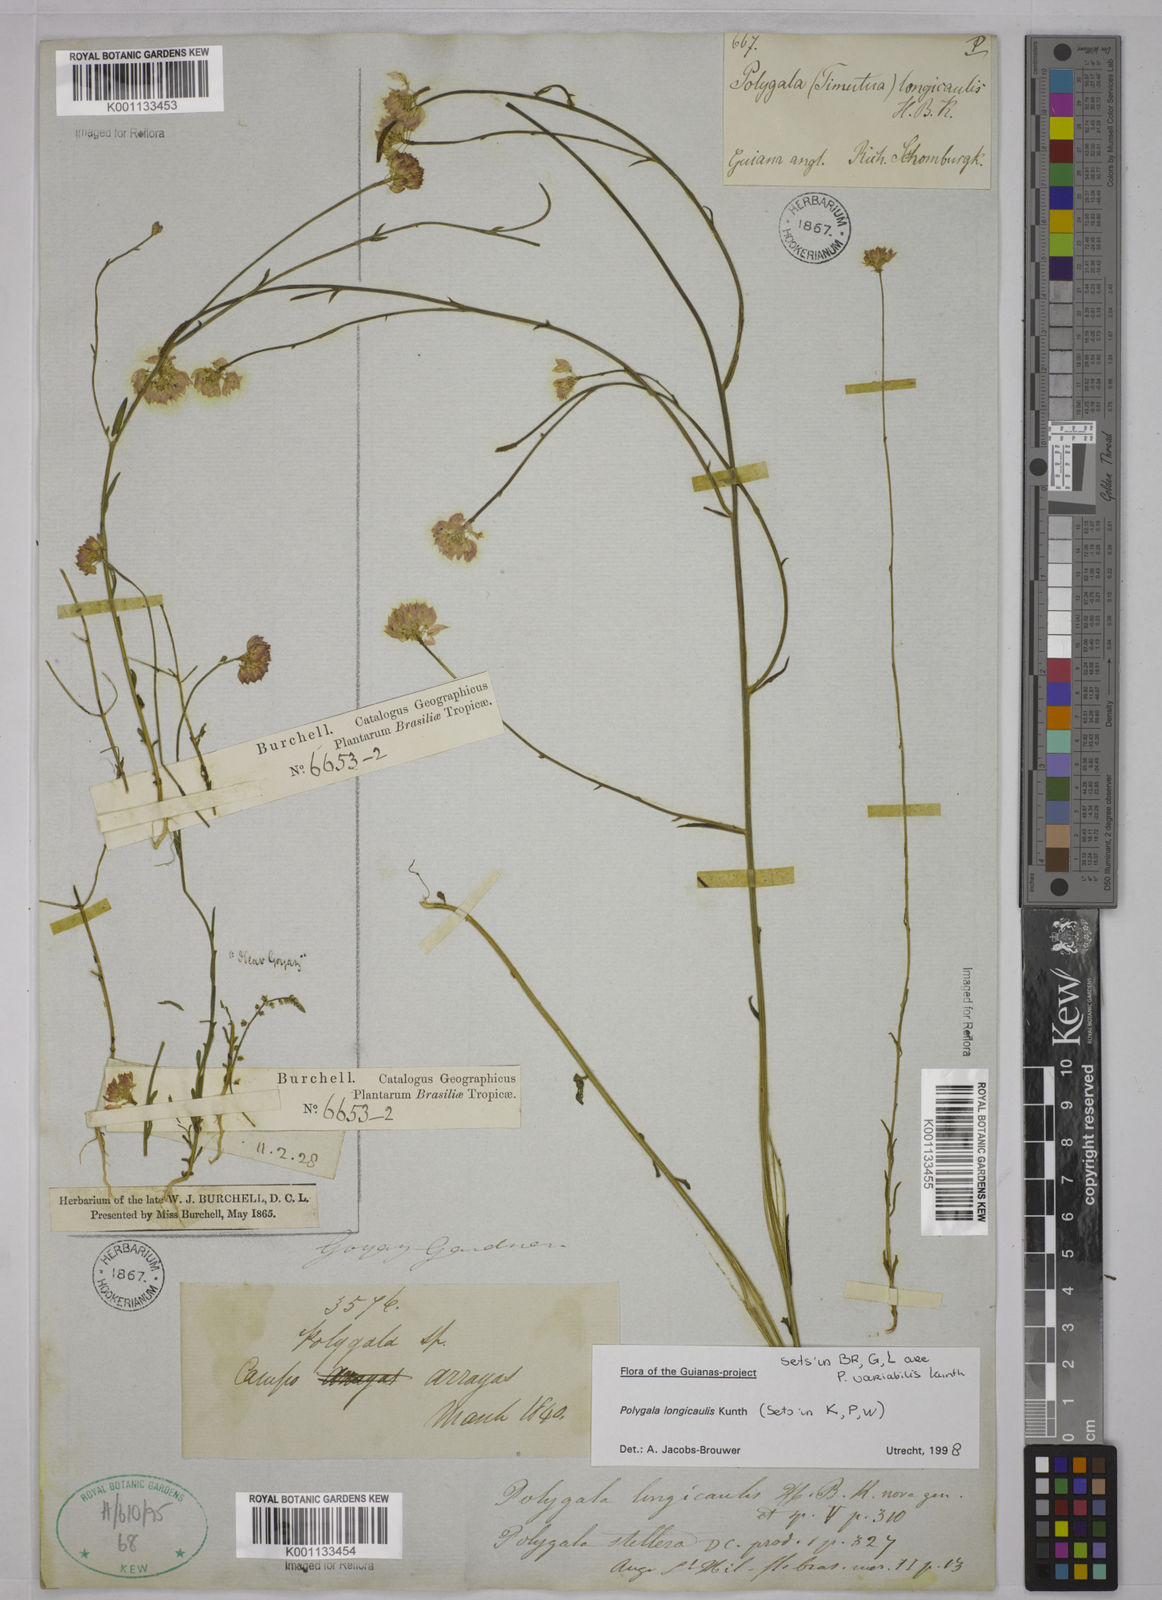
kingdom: Plantae
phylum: Tracheophyta
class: Magnoliopsida
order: Fabales
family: Polygalaceae
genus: Polygala
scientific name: Polygala longicaulis
